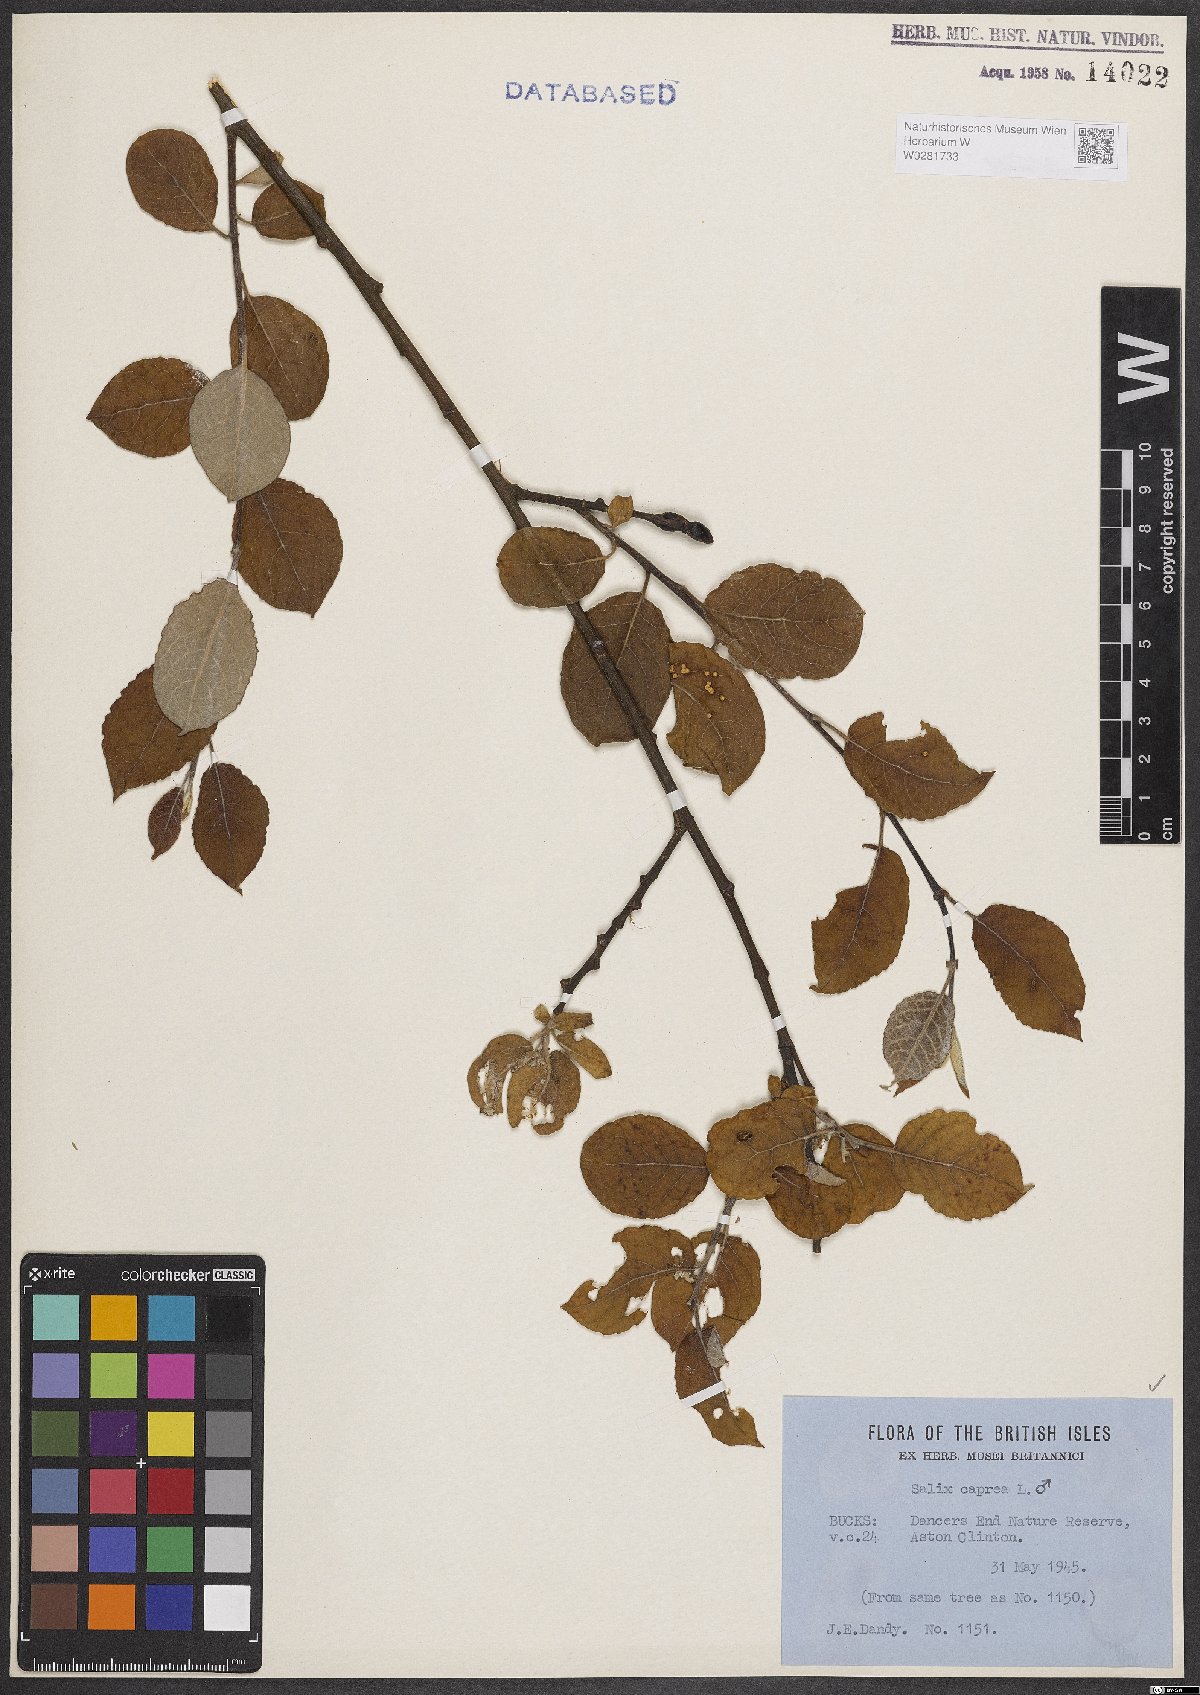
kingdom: Plantae
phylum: Tracheophyta
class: Magnoliopsida
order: Malpighiales
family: Salicaceae
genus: Salix
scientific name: Salix caprea
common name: Goat willow
